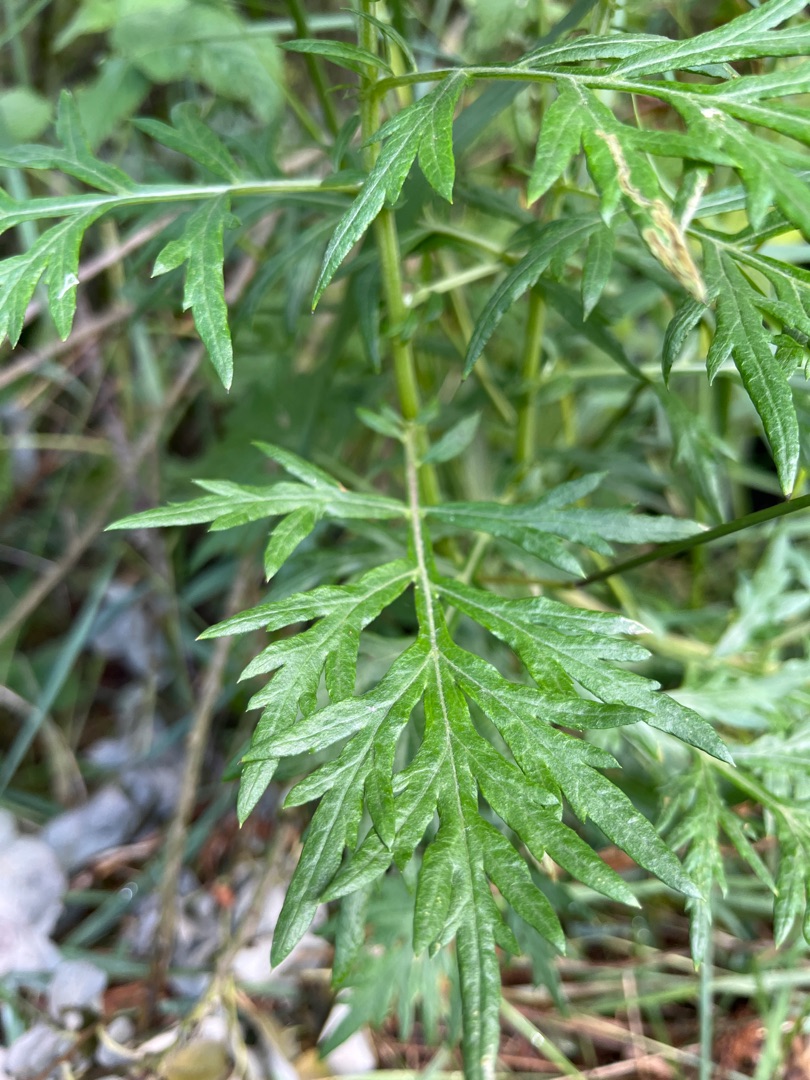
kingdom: Plantae
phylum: Tracheophyta
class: Magnoliopsida
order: Asterales
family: Asteraceae
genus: Artemisia
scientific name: Artemisia vulgaris
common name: Grå-bynke
